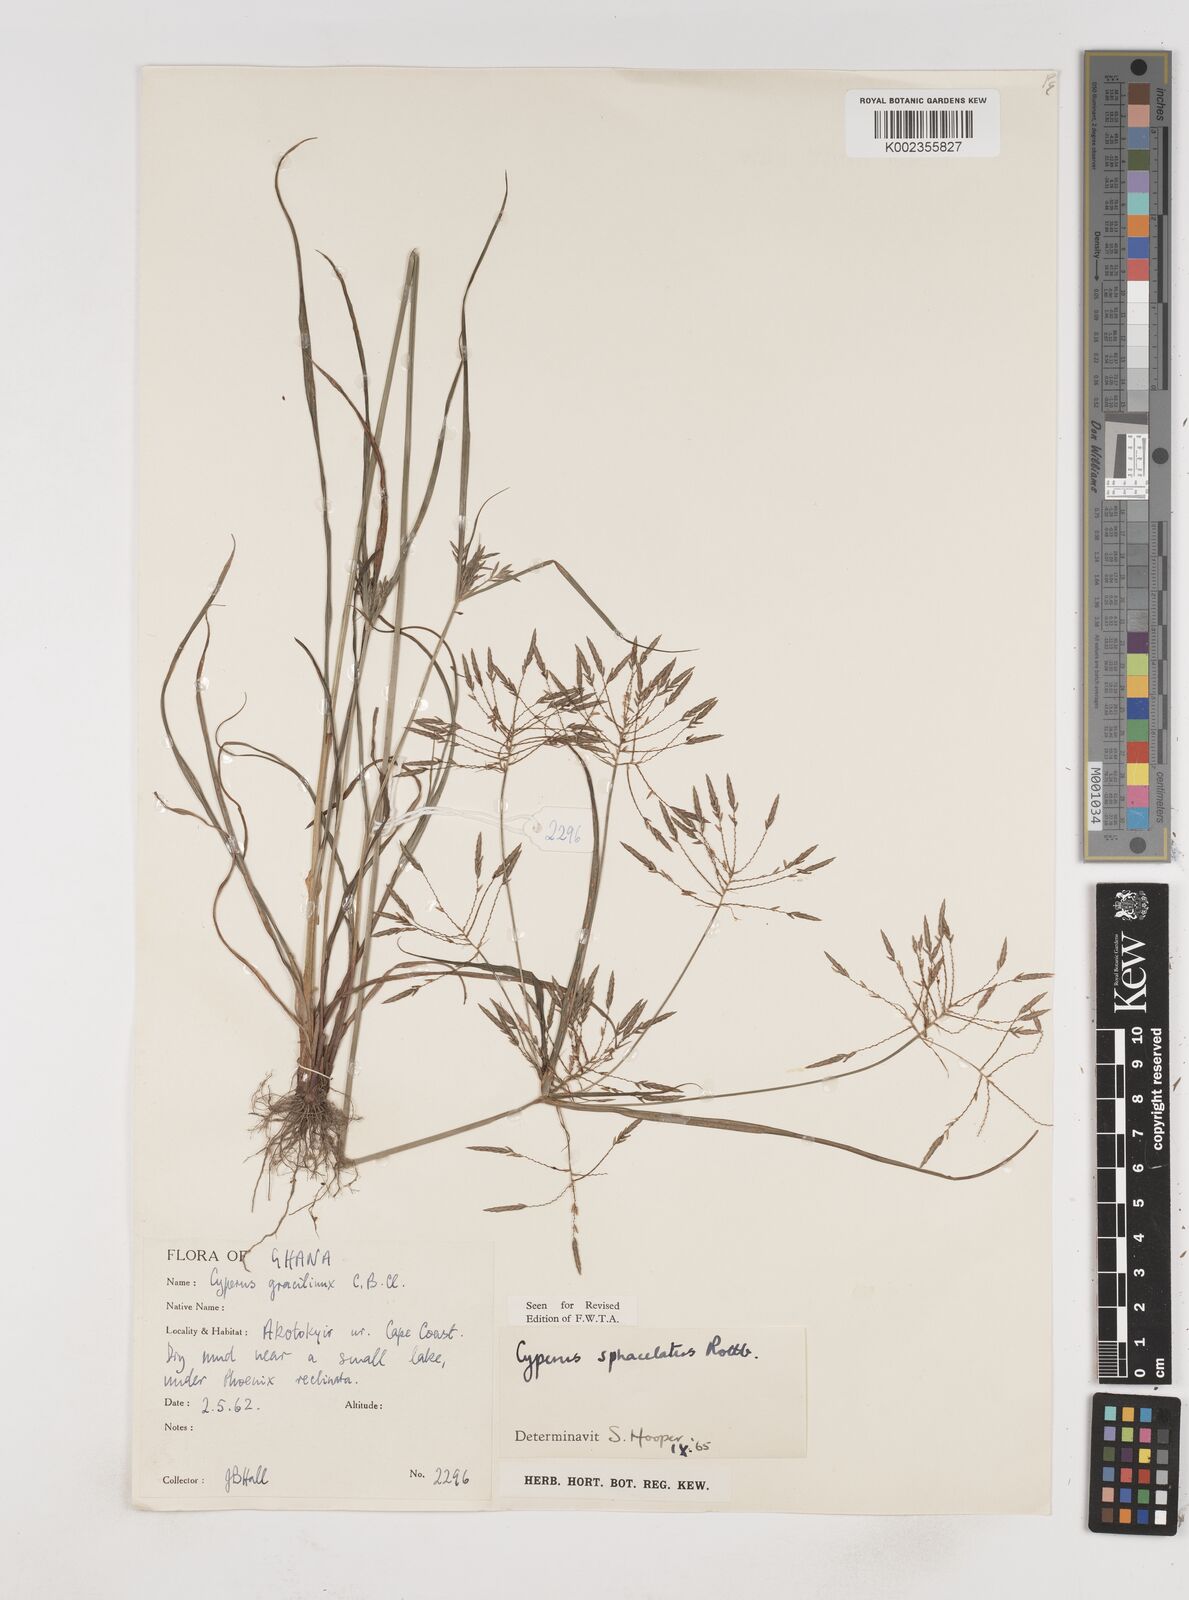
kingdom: Plantae
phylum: Tracheophyta
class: Liliopsida
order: Poales
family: Cyperaceae
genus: Cyperus
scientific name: Cyperus sphacelatus
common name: Roadside flatsedge
